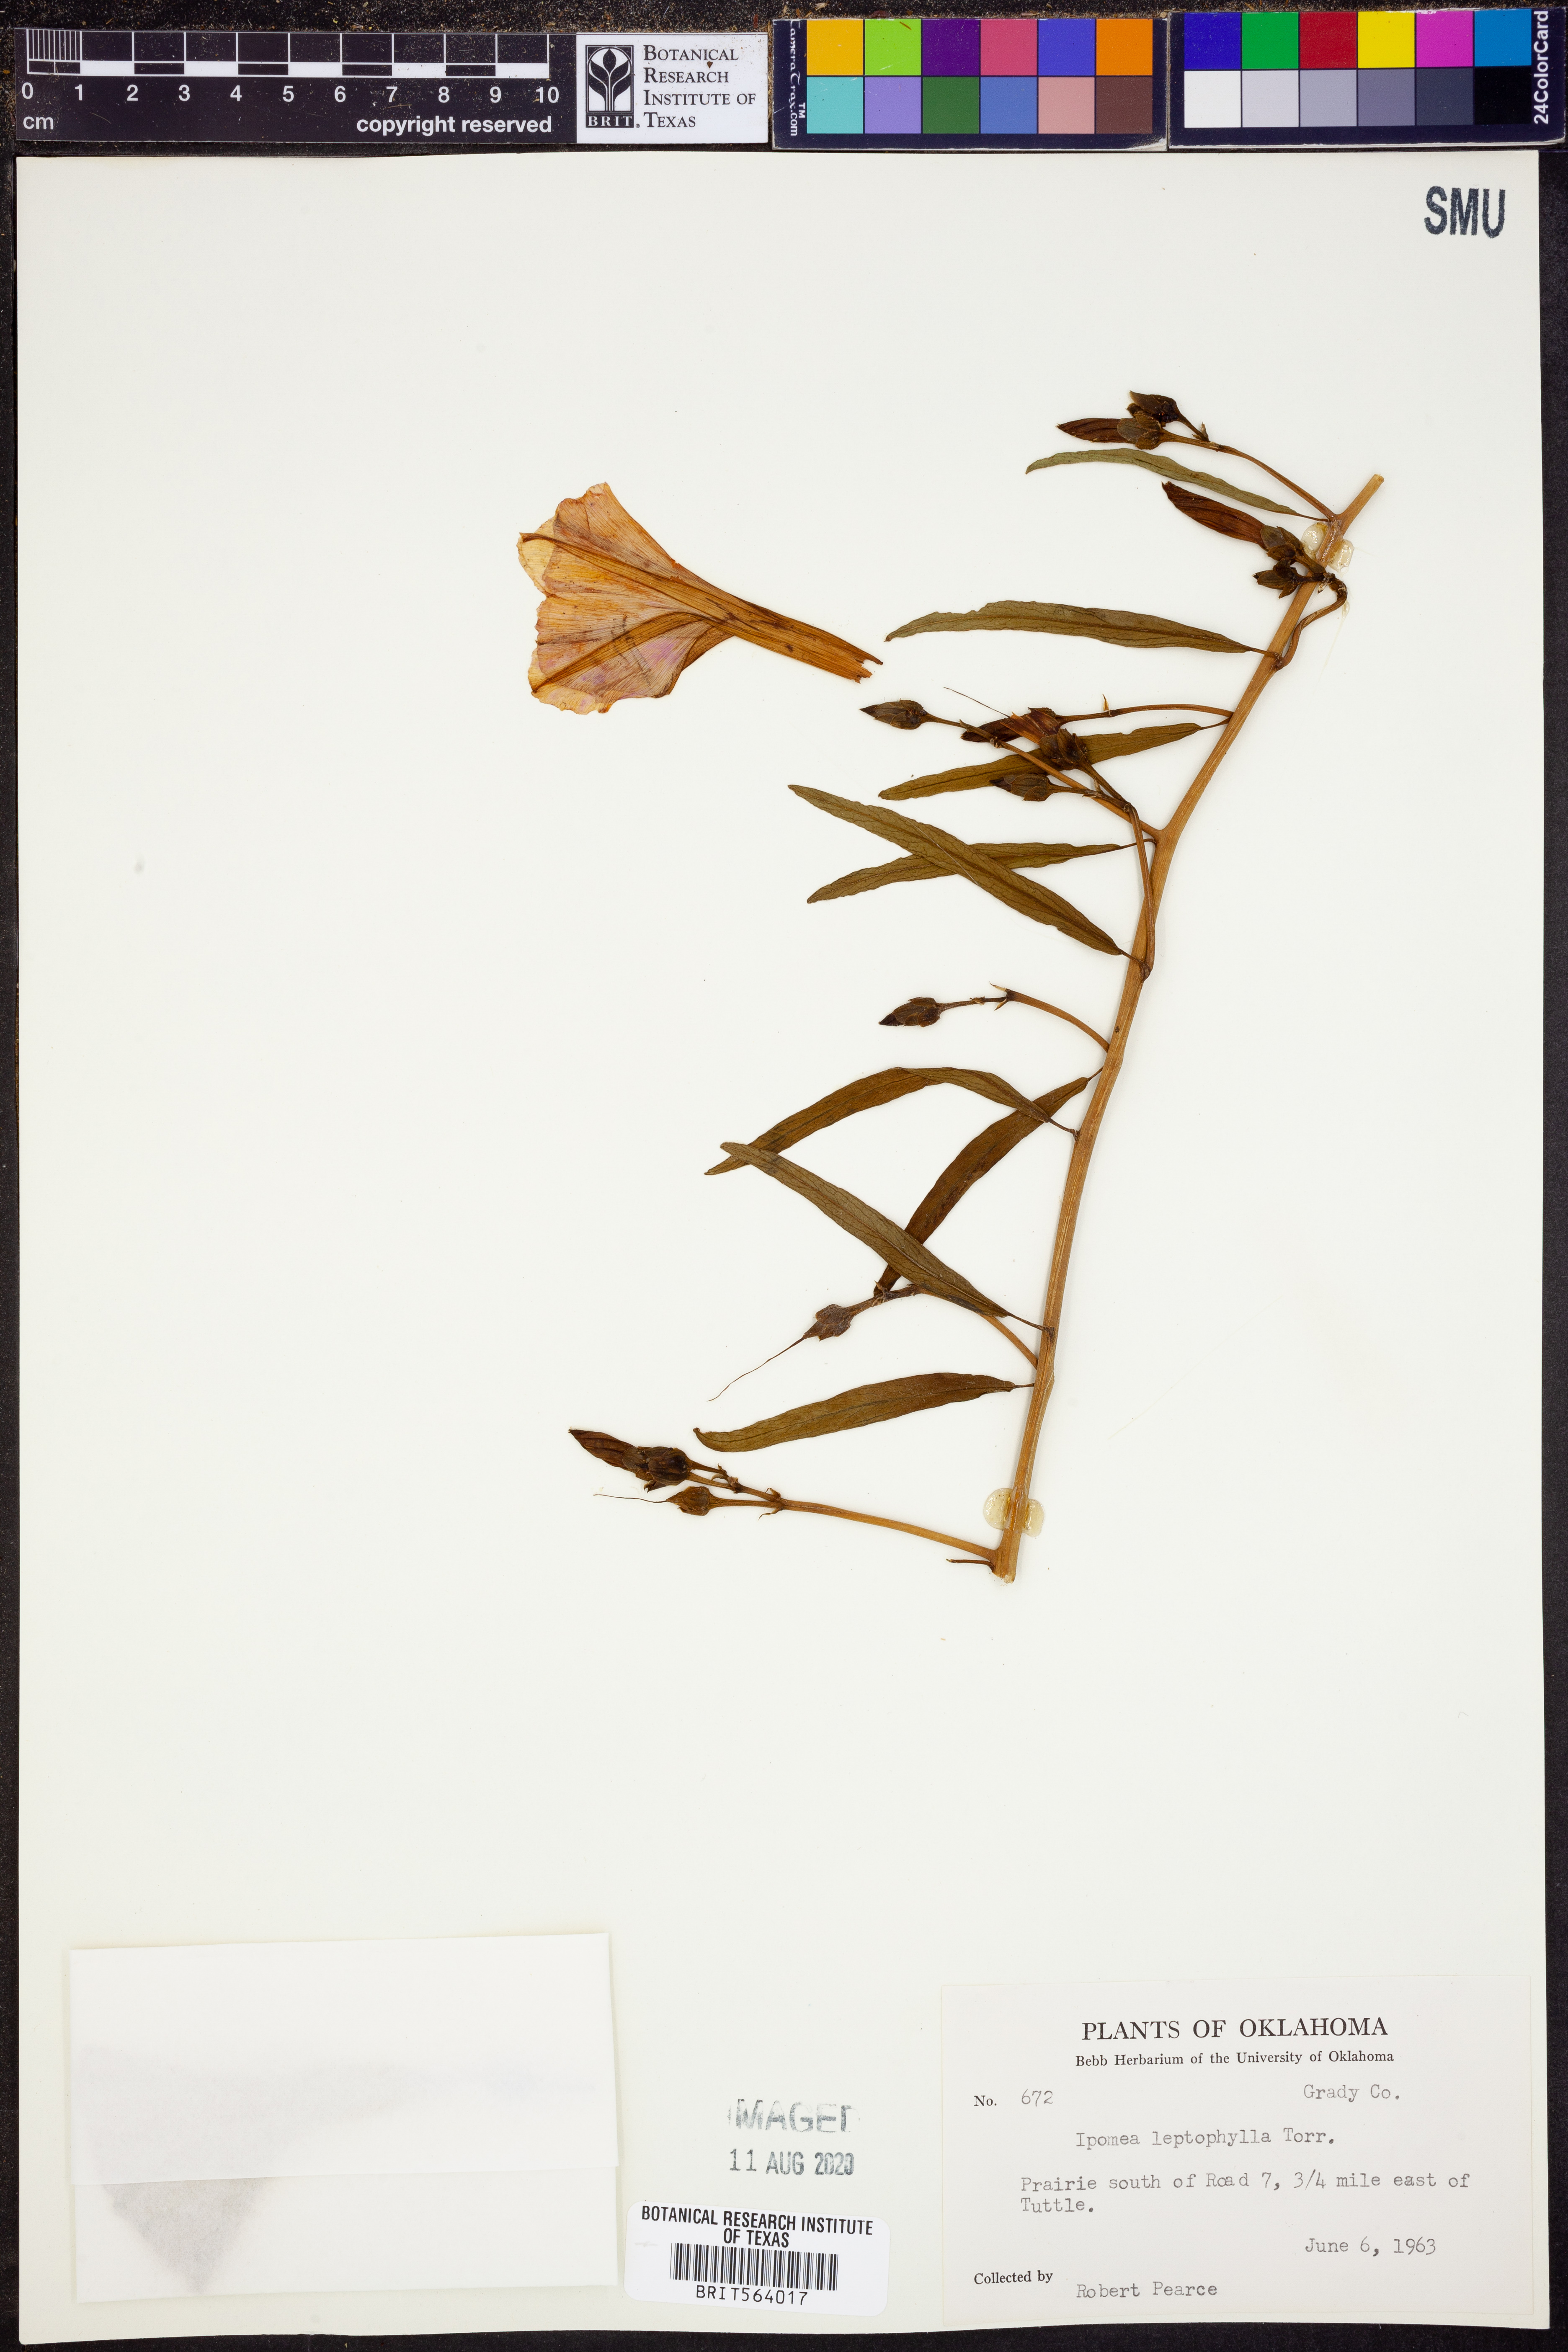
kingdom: Plantae
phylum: Tracheophyta
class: Magnoliopsida
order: Solanales
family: Convolvulaceae
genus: Ipomoea
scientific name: Ipomoea leptophylla
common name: Bush moonflower
